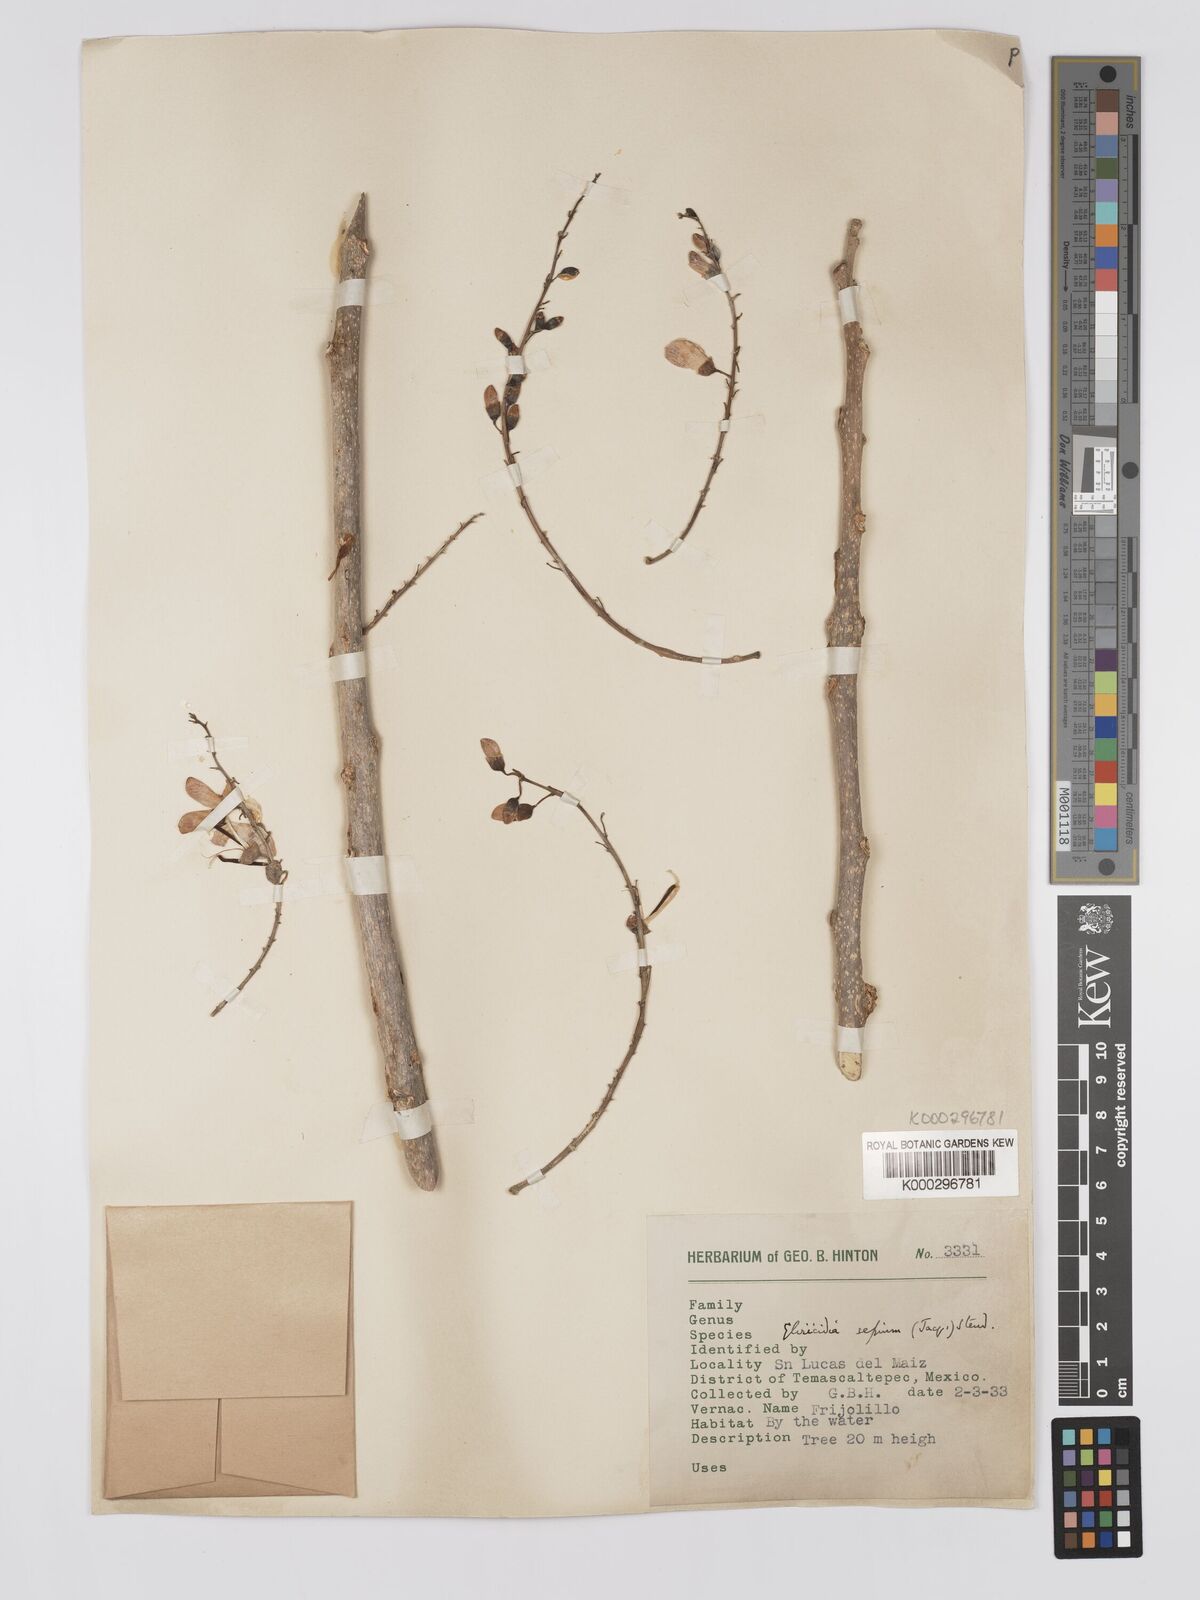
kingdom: Plantae
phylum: Tracheophyta
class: Magnoliopsida
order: Fabales
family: Fabaceae
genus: Gliricidia
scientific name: Gliricidia sepium
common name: Quickstick
